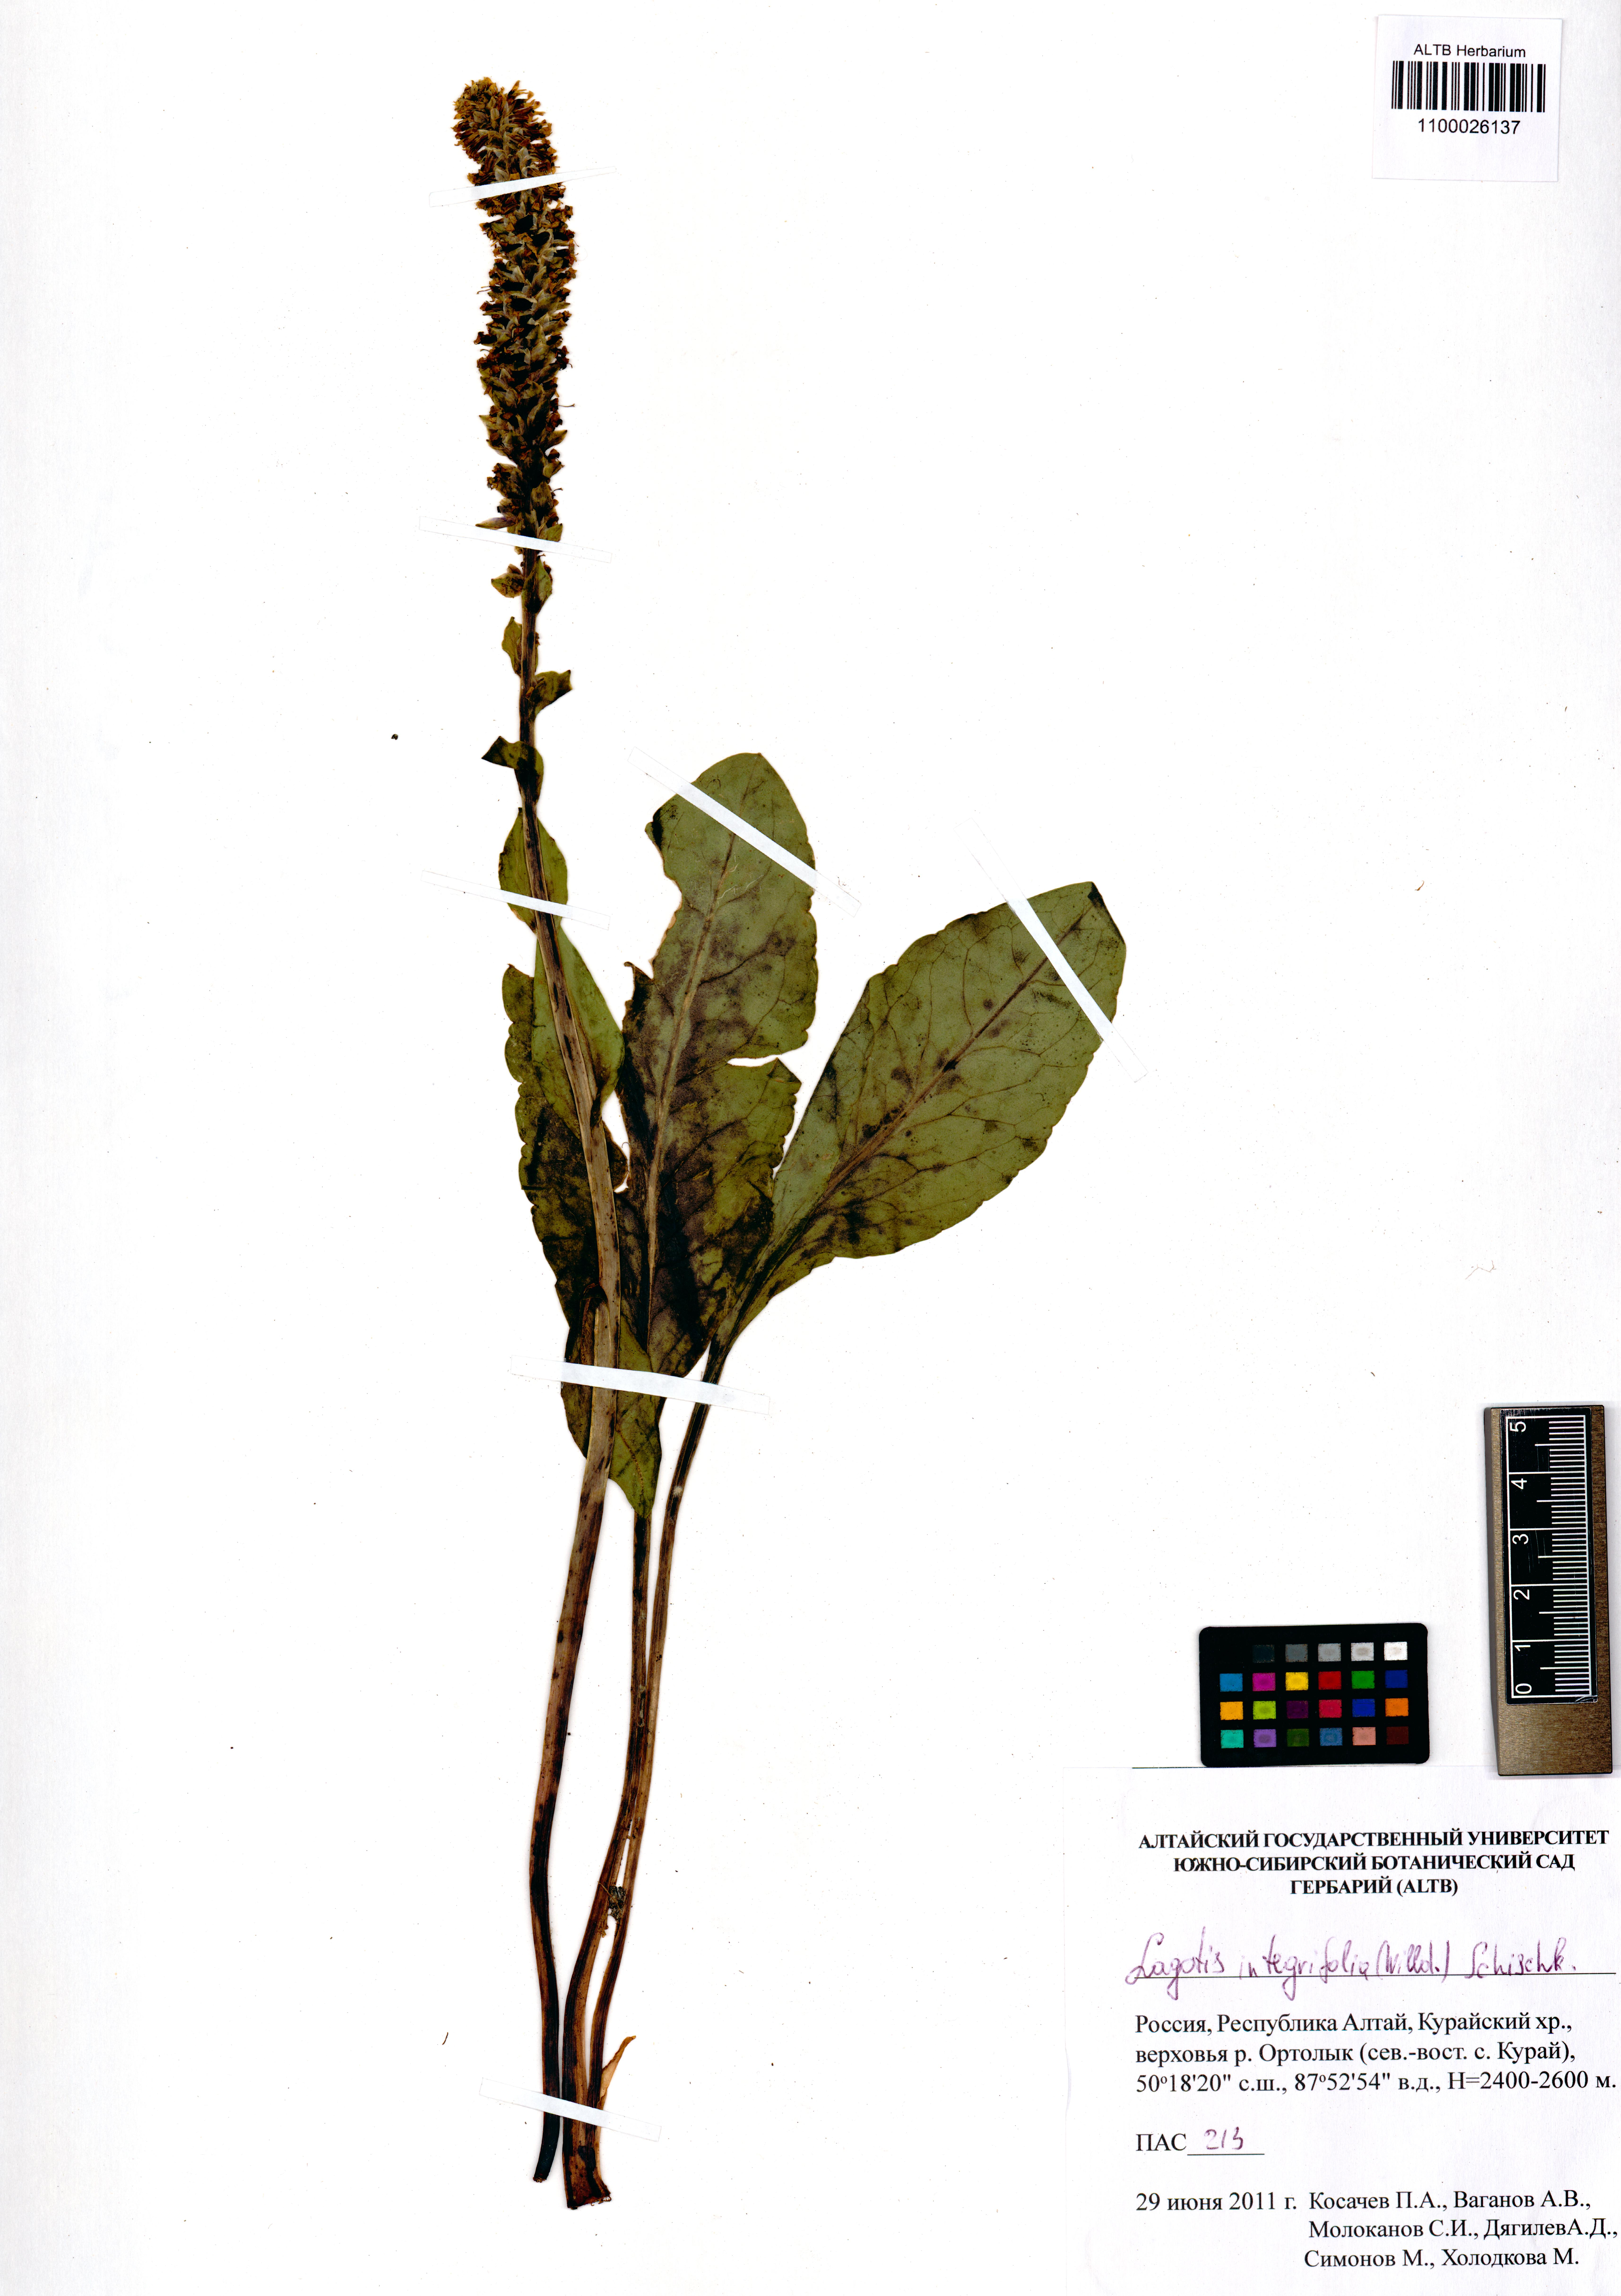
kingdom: Plantae
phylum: Tracheophyta
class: Magnoliopsida
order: Lamiales
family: Plantaginaceae
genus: Lagotis
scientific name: Lagotis integrifolia
